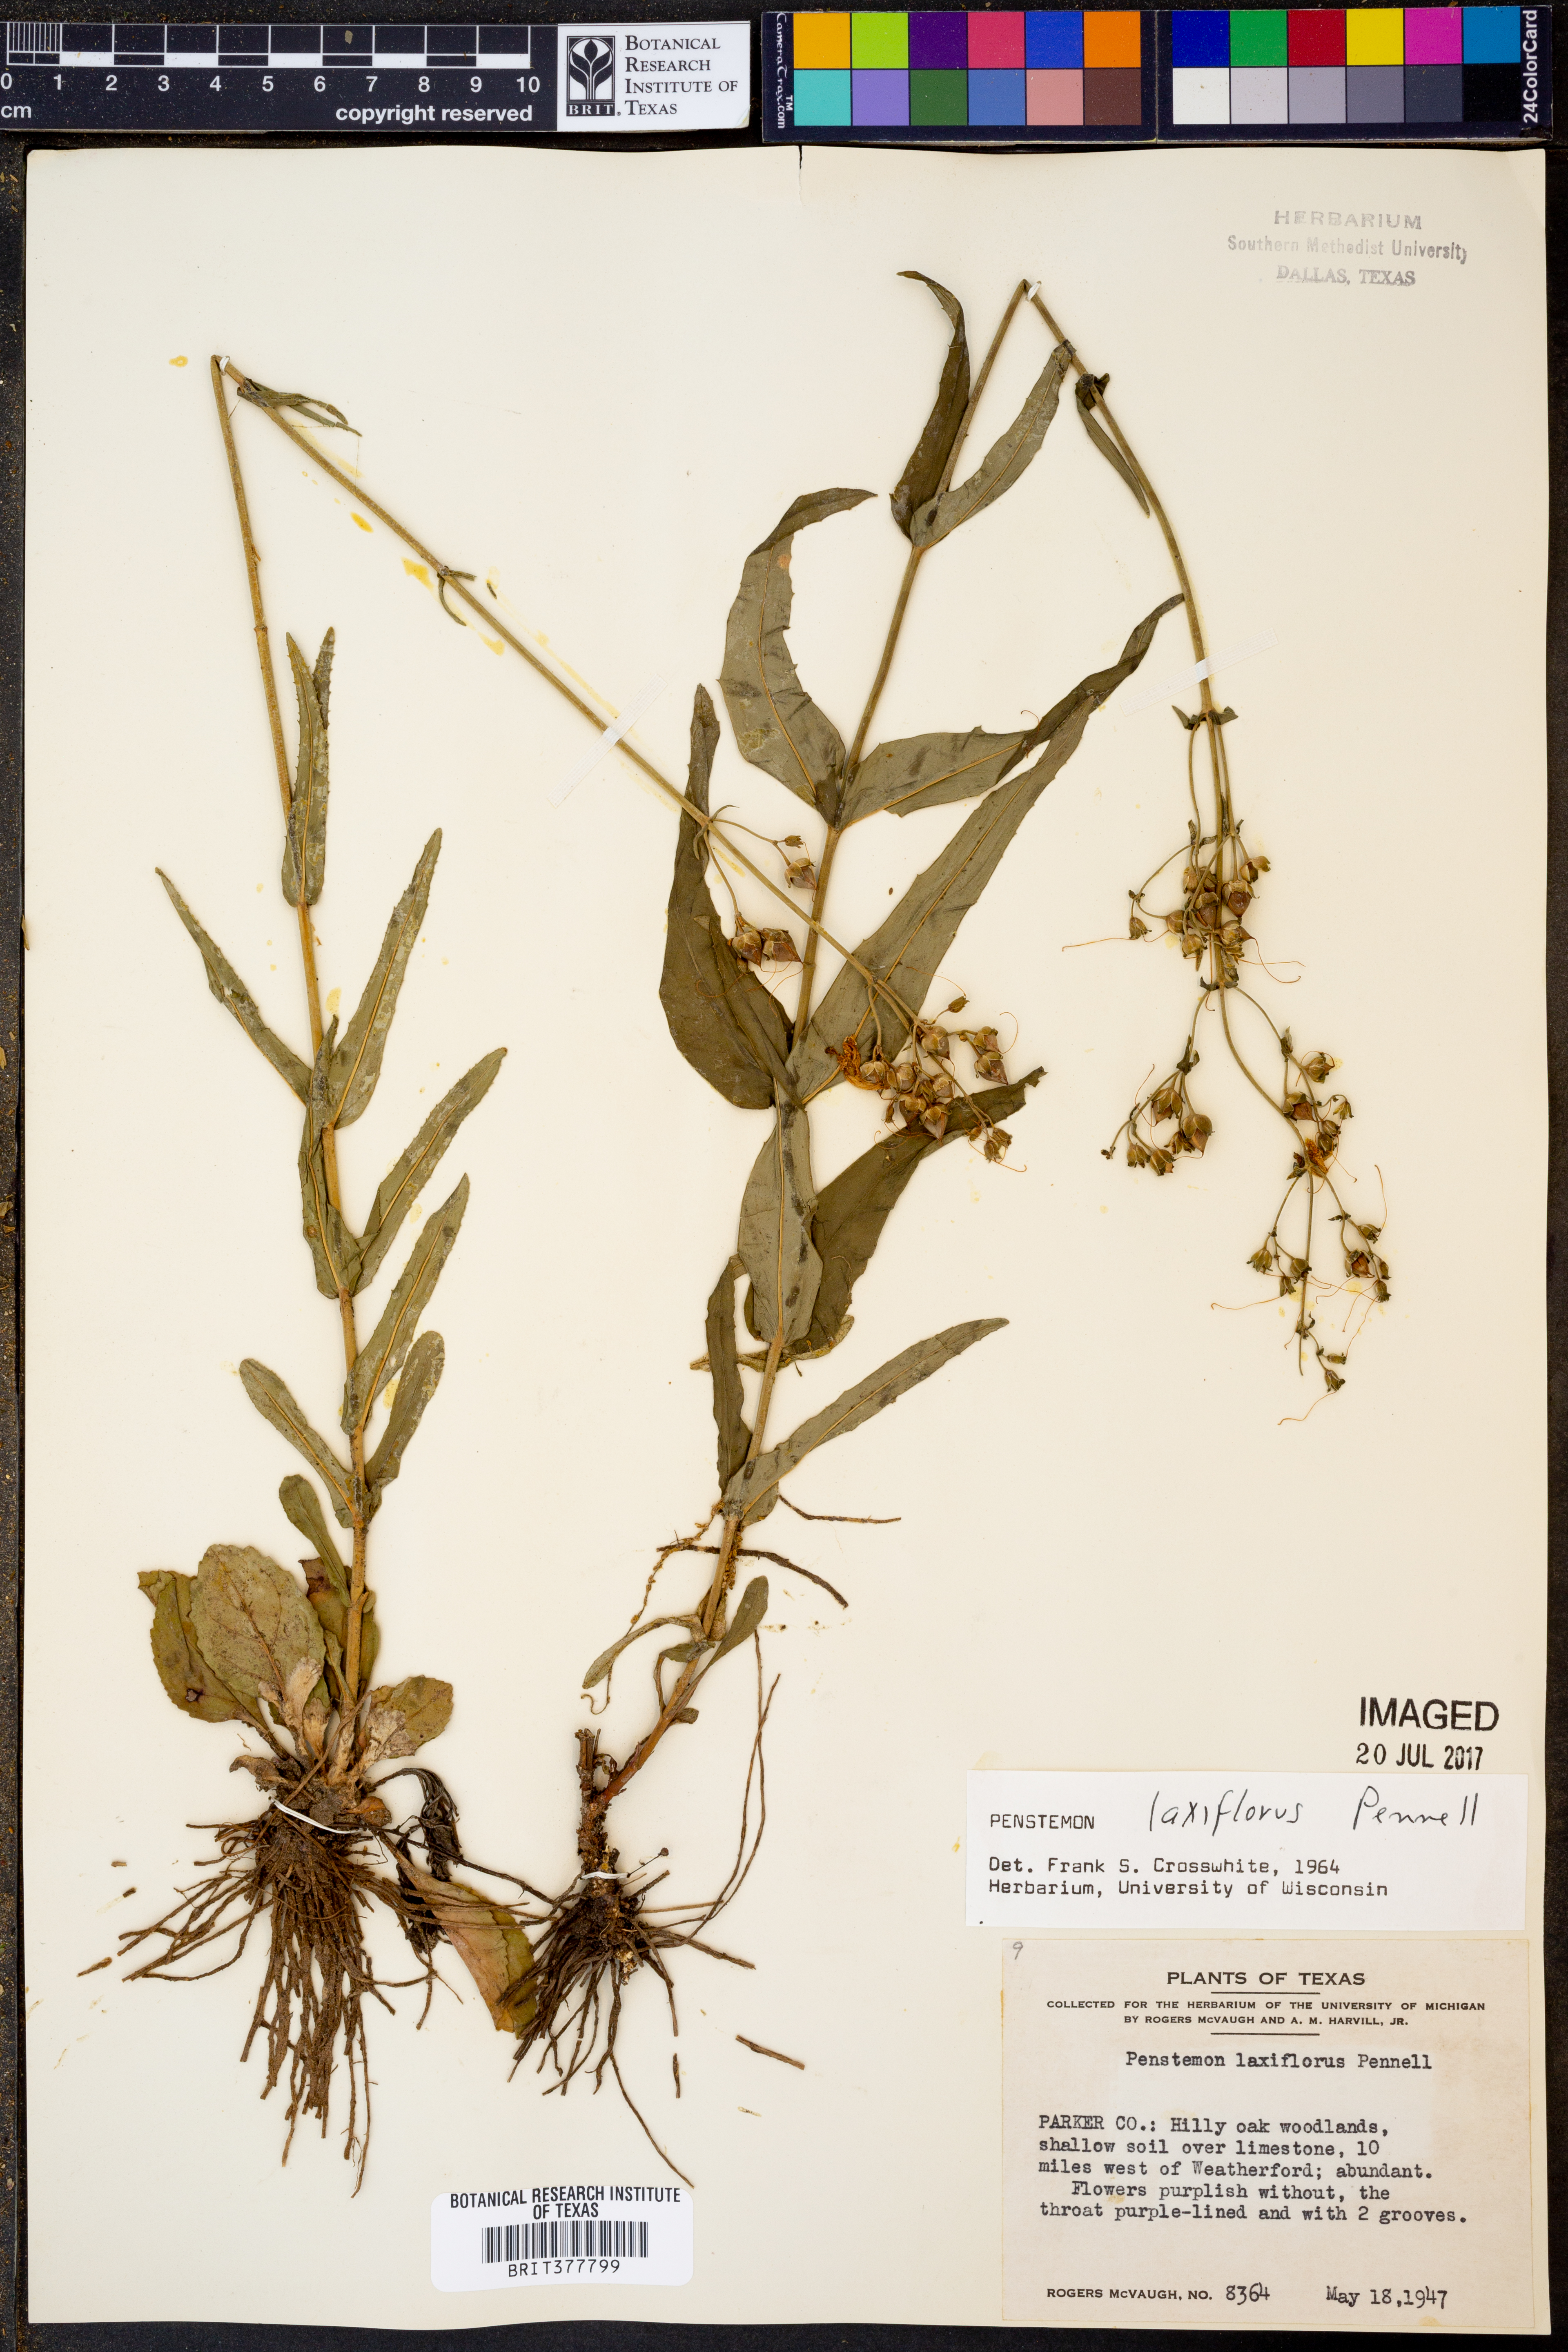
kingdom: Plantae
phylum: Tracheophyta
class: Magnoliopsida
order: Lamiales
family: Plantaginaceae
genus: Penstemon
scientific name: Penstemon laxiflorus
